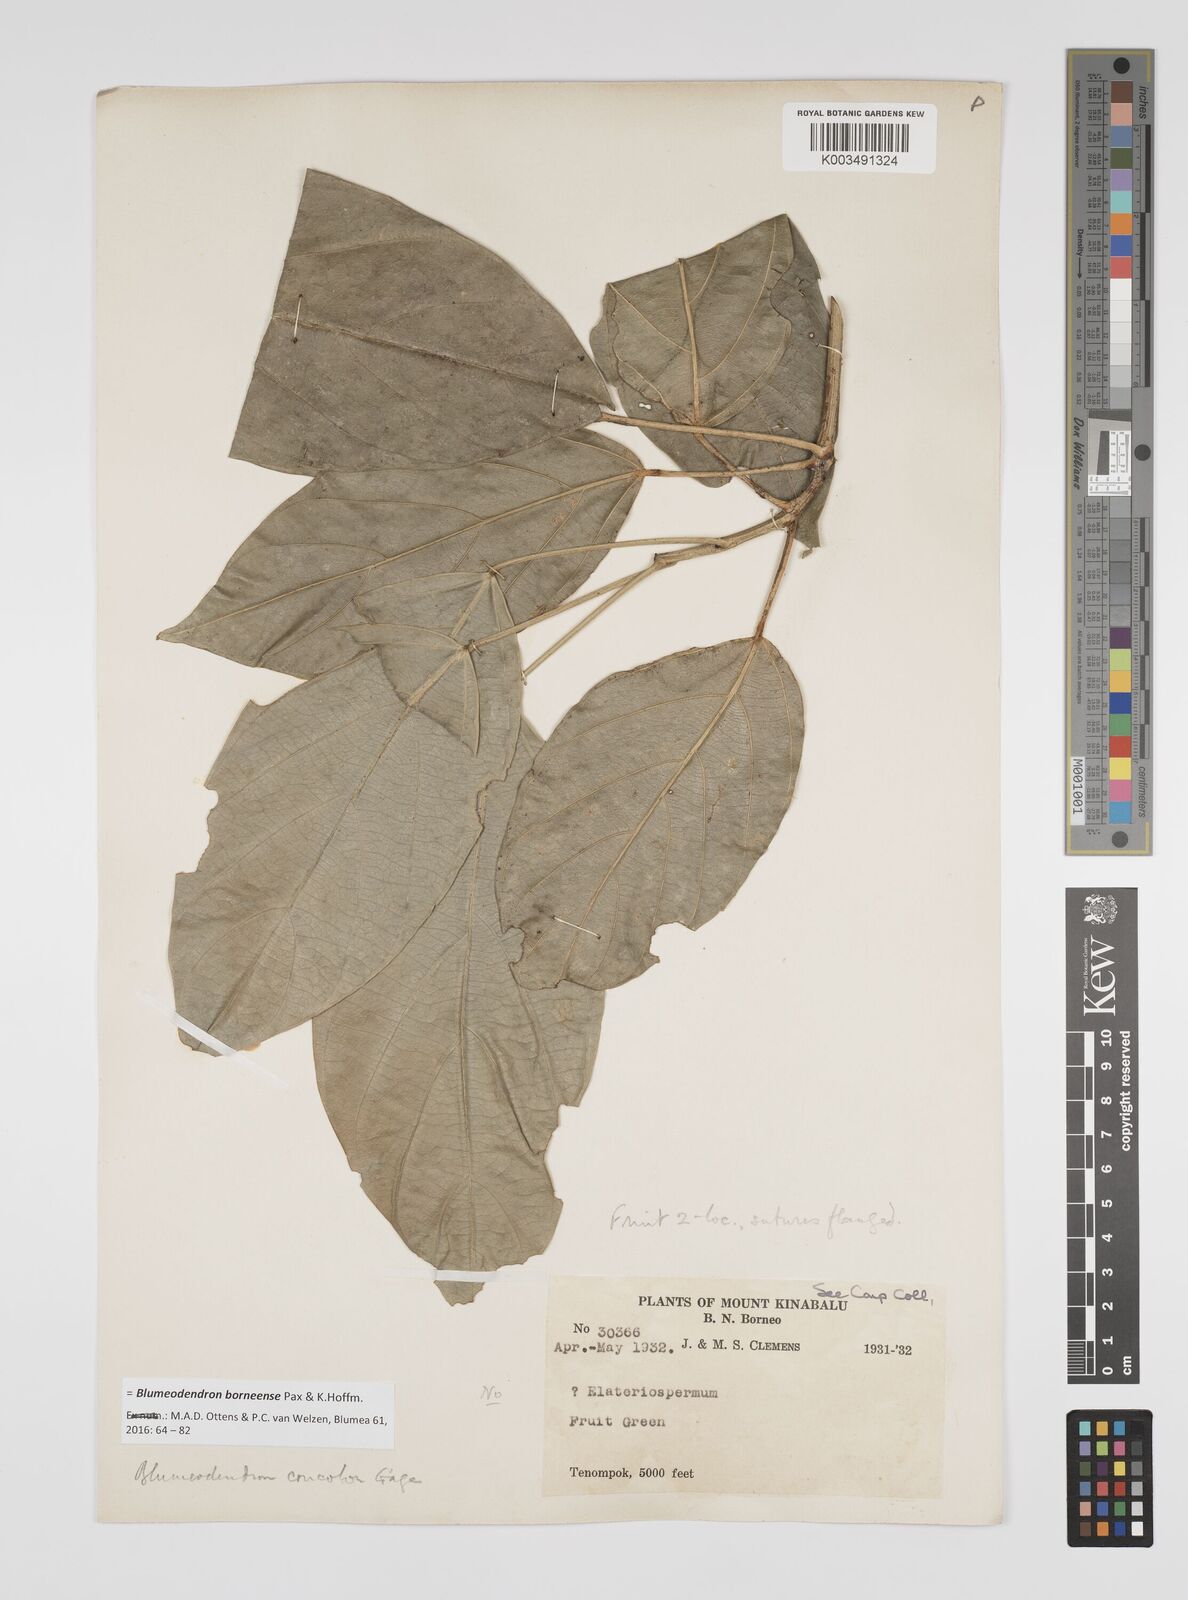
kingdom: Plantae
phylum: Tracheophyta
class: Magnoliopsida
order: Malpighiales
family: Euphorbiaceae
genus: Blumeodendron
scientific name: Blumeodendron borneense
